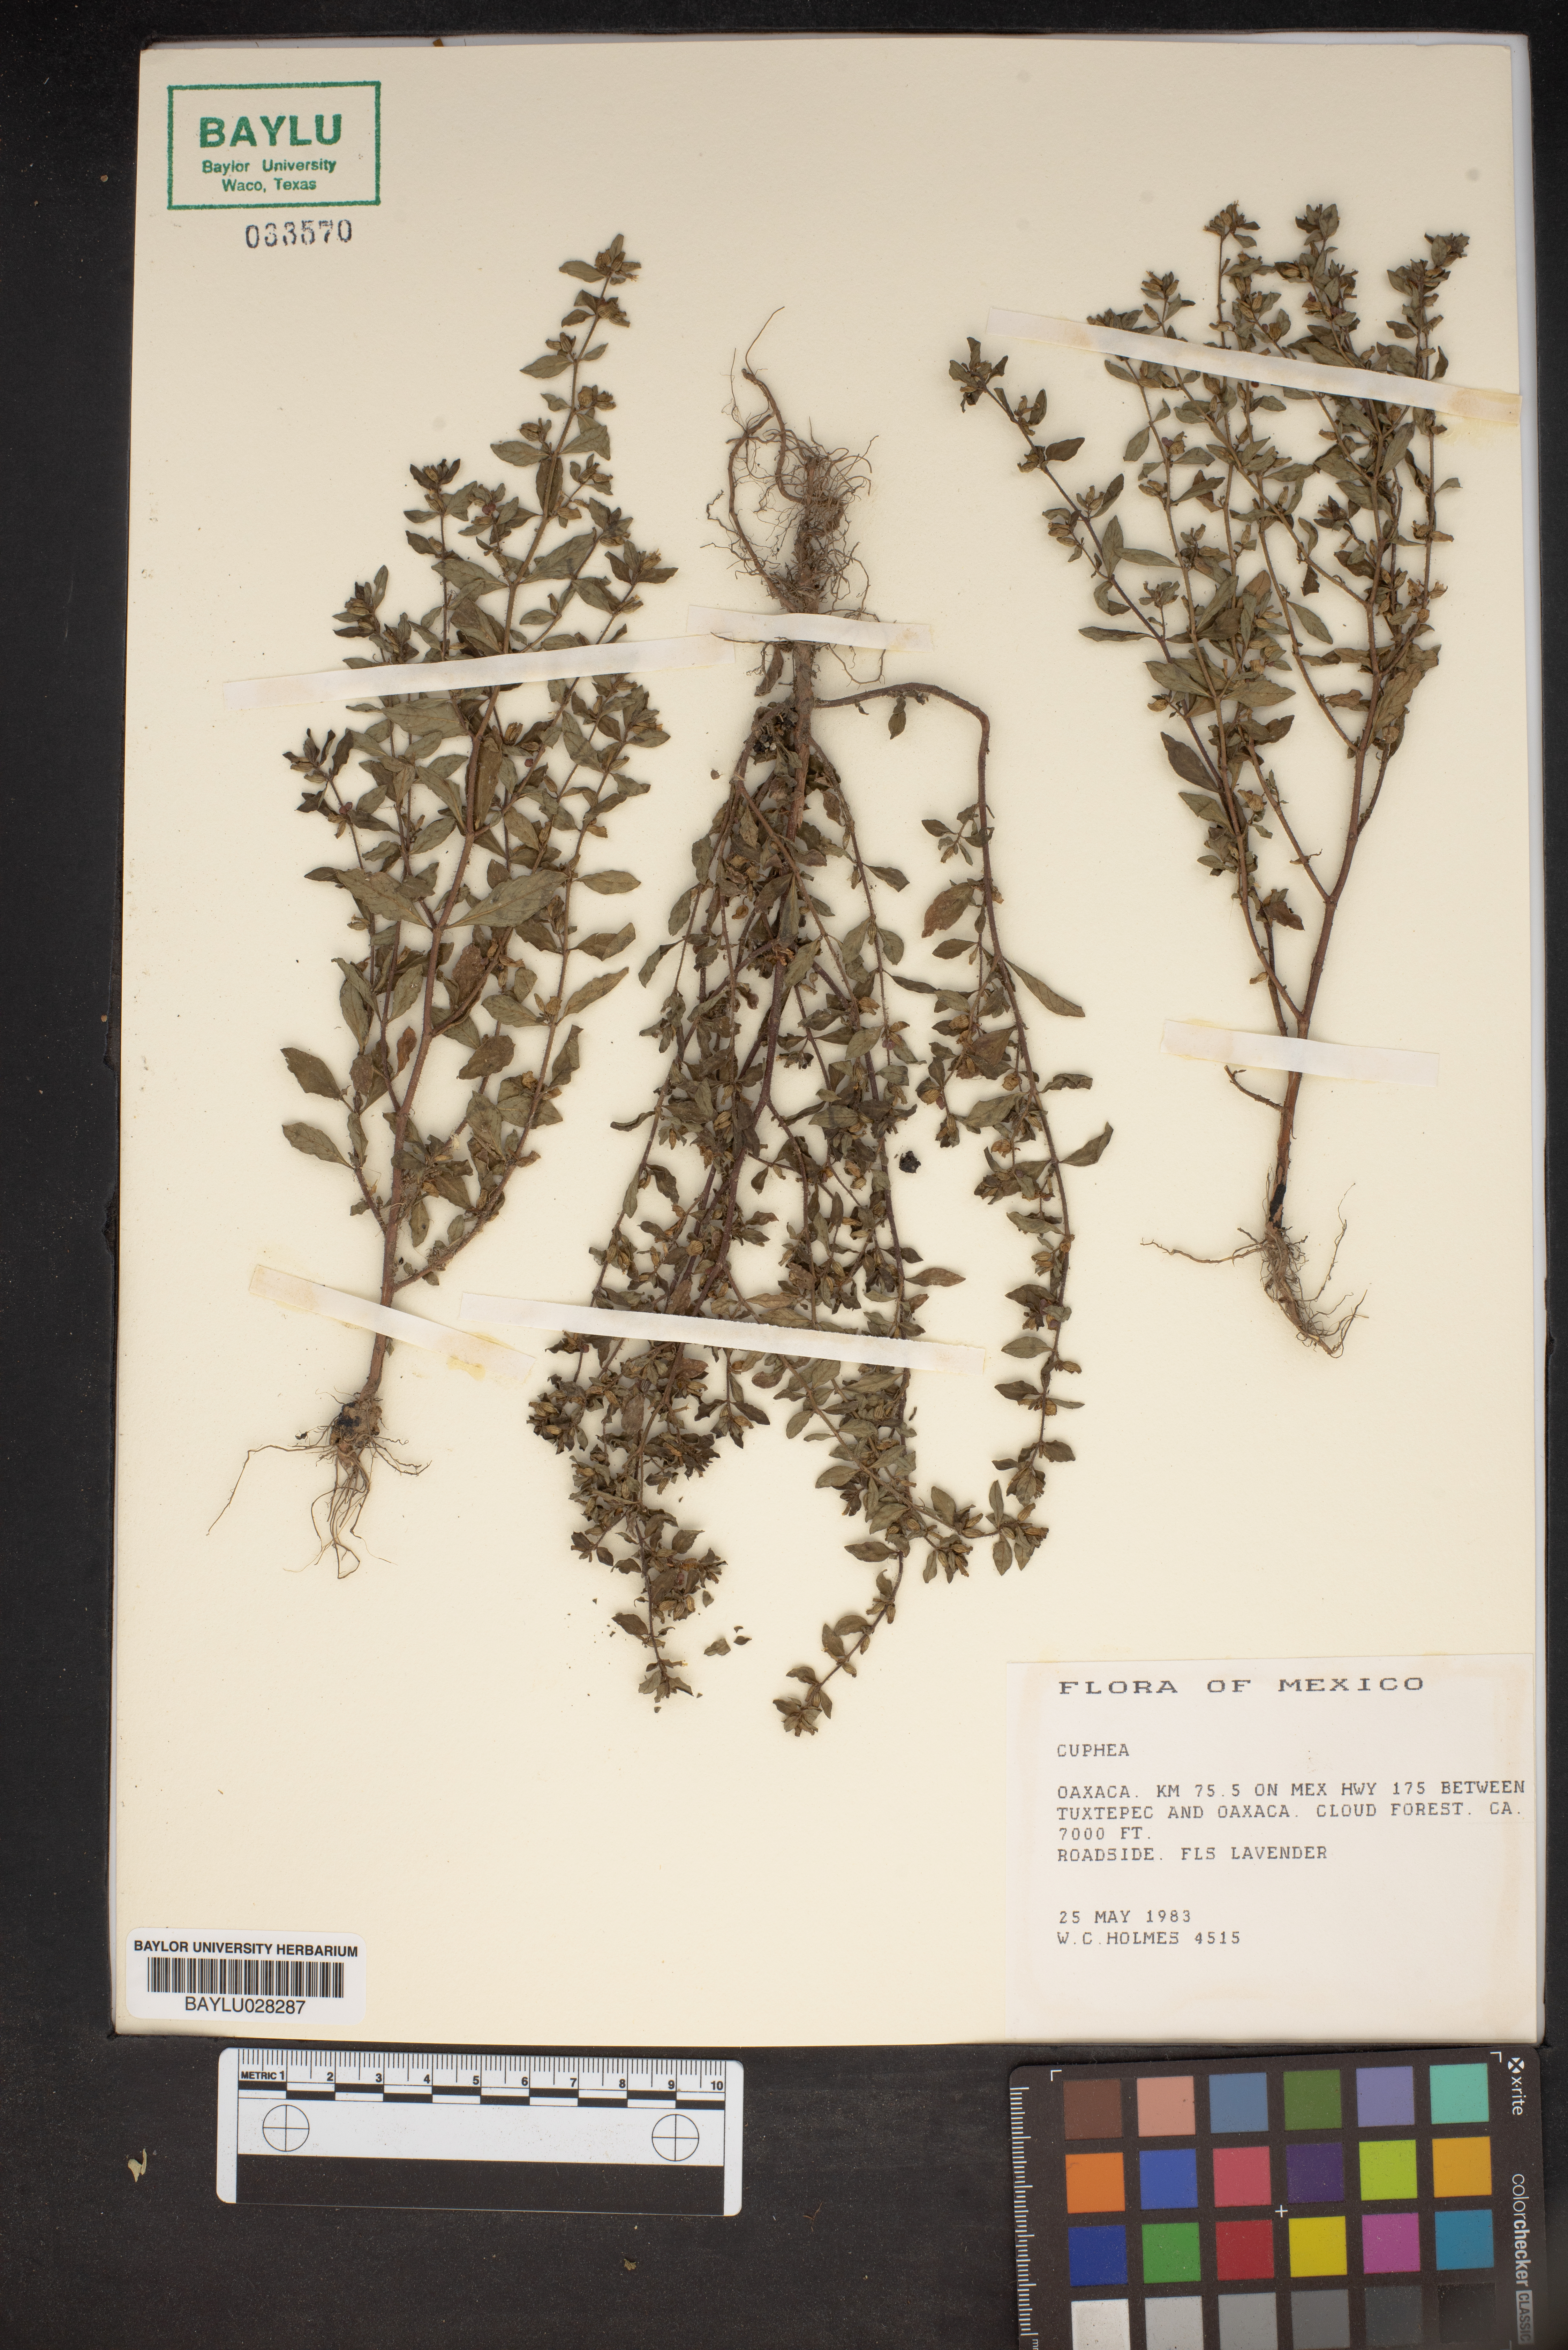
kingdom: Plantae
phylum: Tracheophyta
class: Magnoliopsida
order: Myrtales
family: Lythraceae
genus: Cuphea
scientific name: Cuphea
